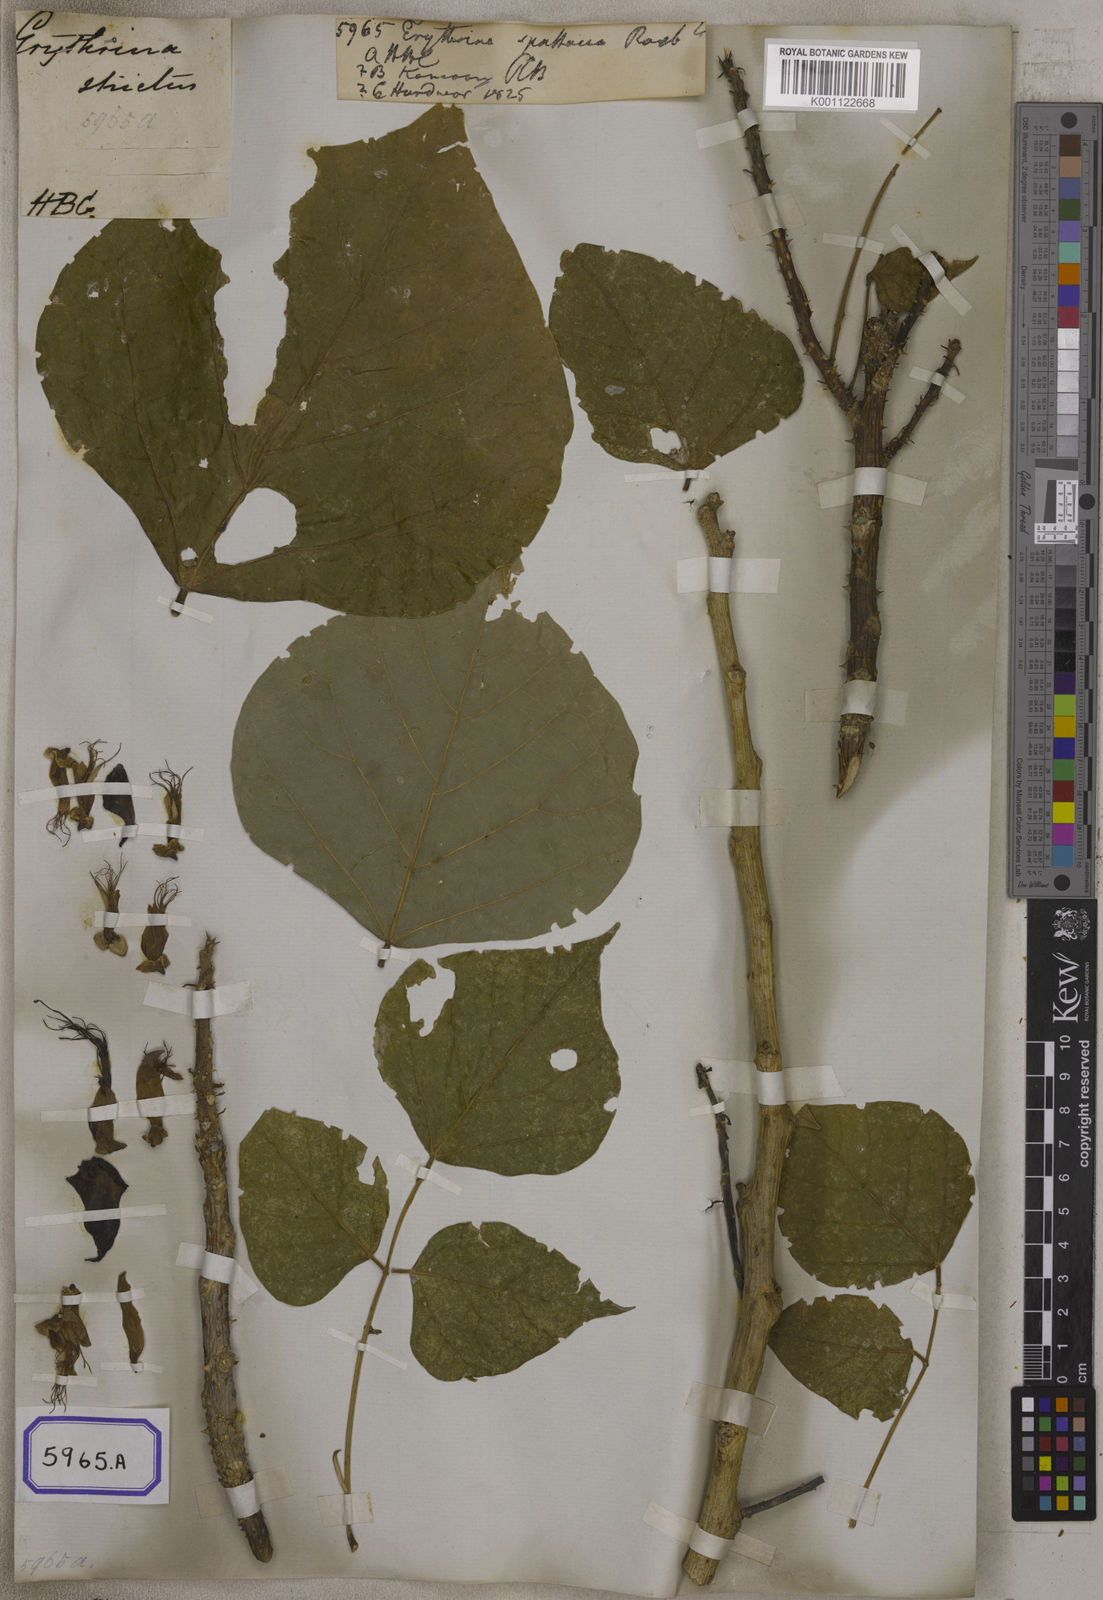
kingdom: Plantae
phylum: Tracheophyta
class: Magnoliopsida
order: Fabales
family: Fabaceae
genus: Erythrina
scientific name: Erythrina
